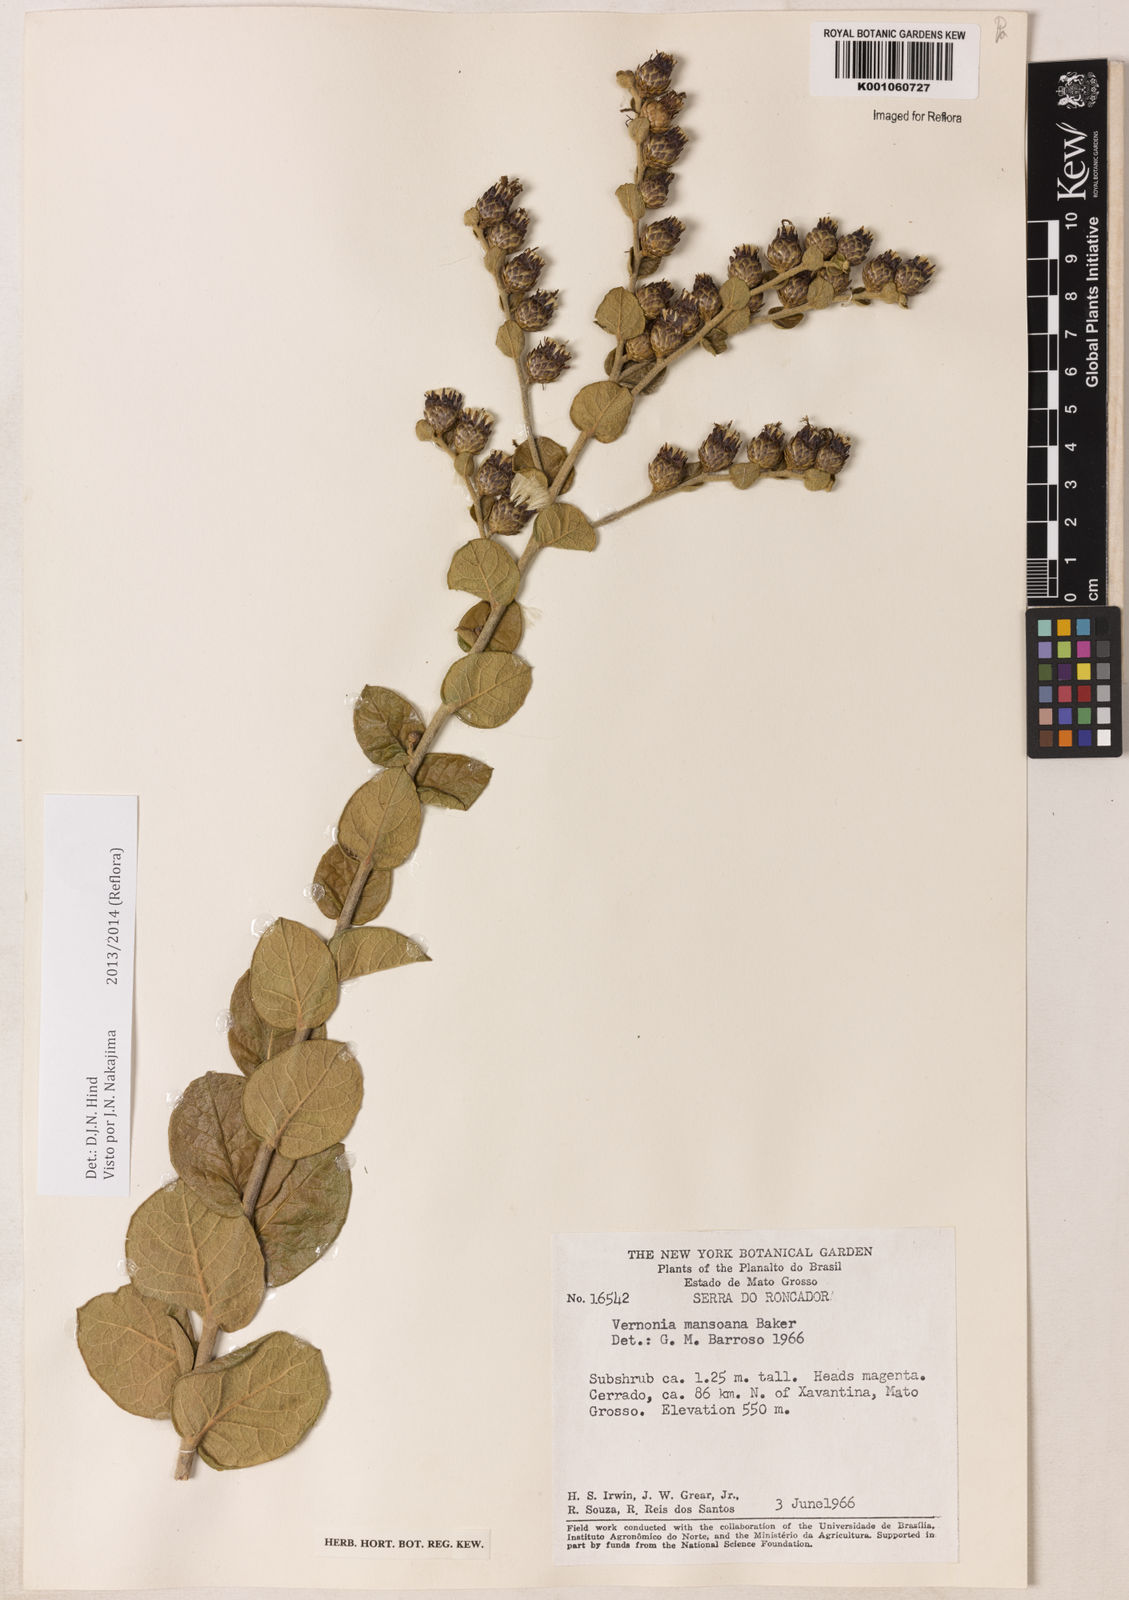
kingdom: Plantae
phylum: Tracheophyta
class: Magnoliopsida
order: Asterales
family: Asteraceae
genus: Lessingianthus
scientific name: Lessingianthus mansoanus
